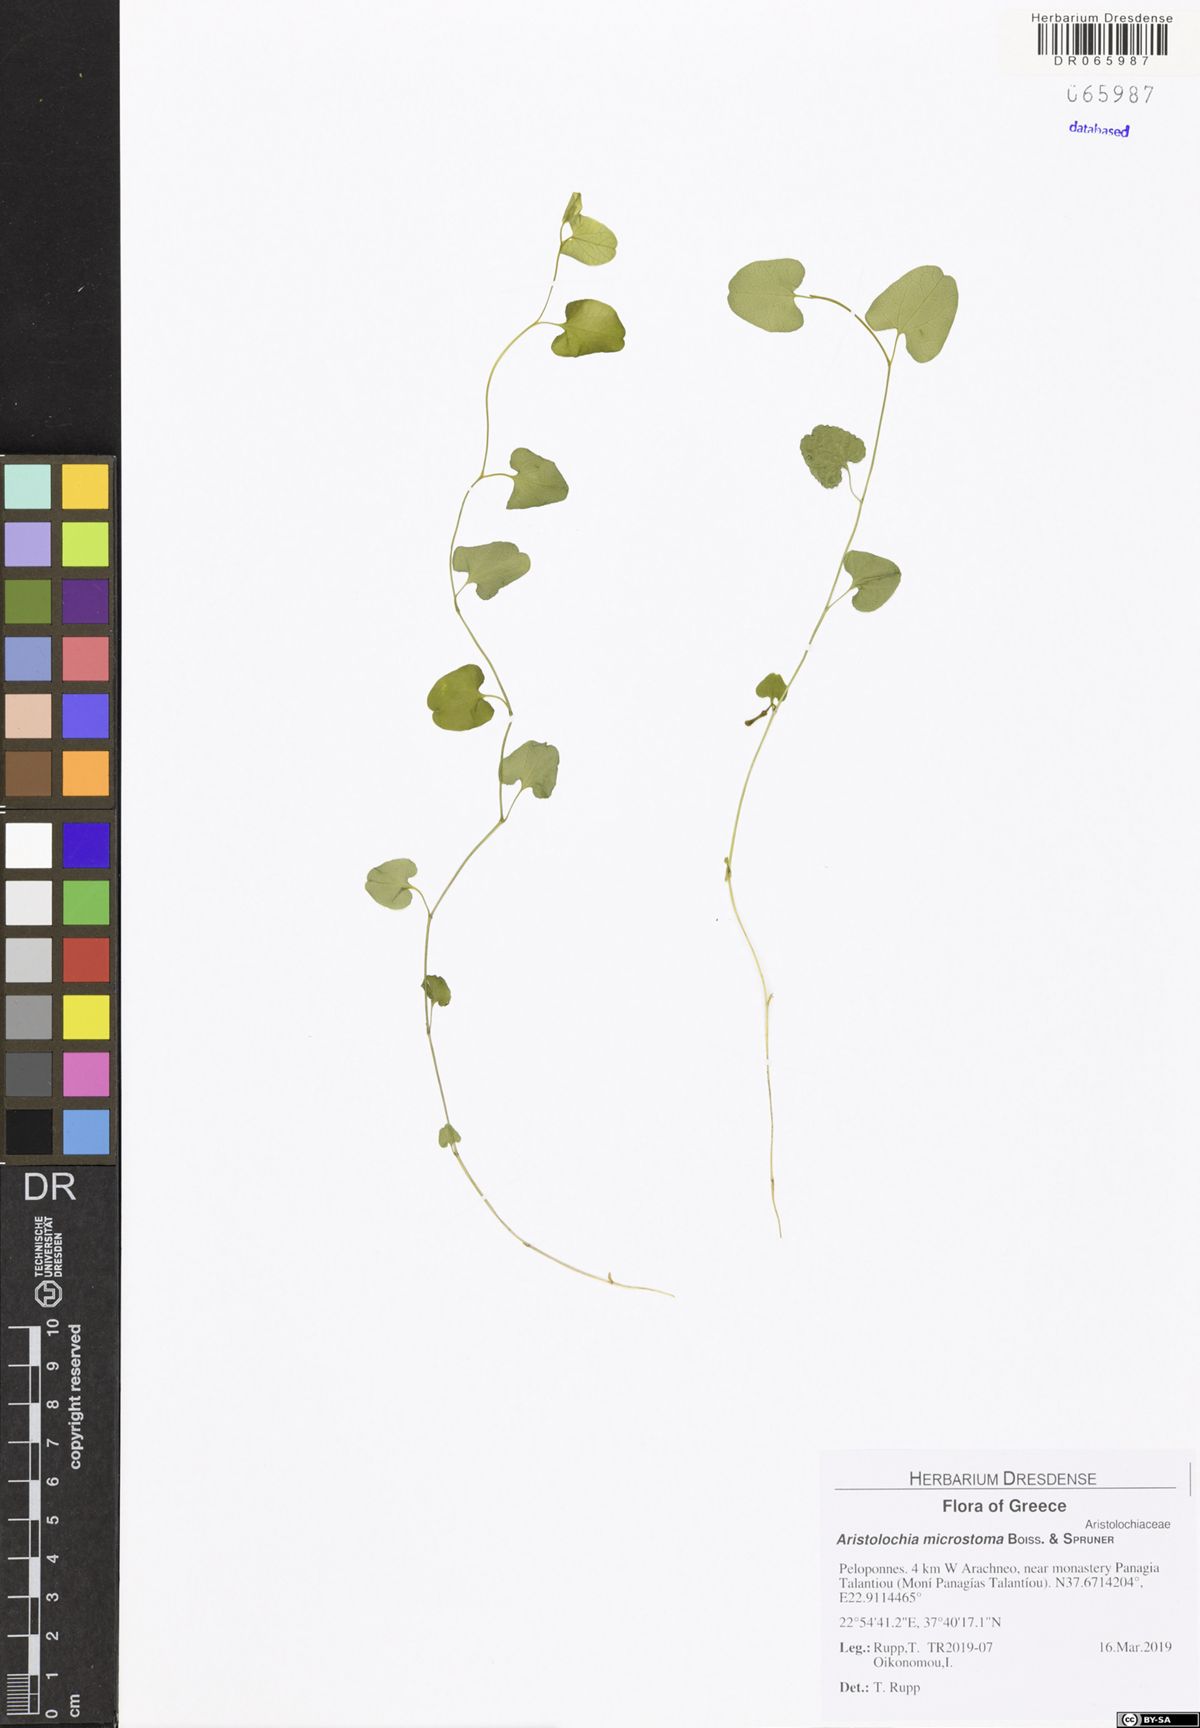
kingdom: Plantae
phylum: Tracheophyta
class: Magnoliopsida
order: Piperales
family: Aristolochiaceae
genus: Aristolochia
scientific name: Aristolochia microstoma
